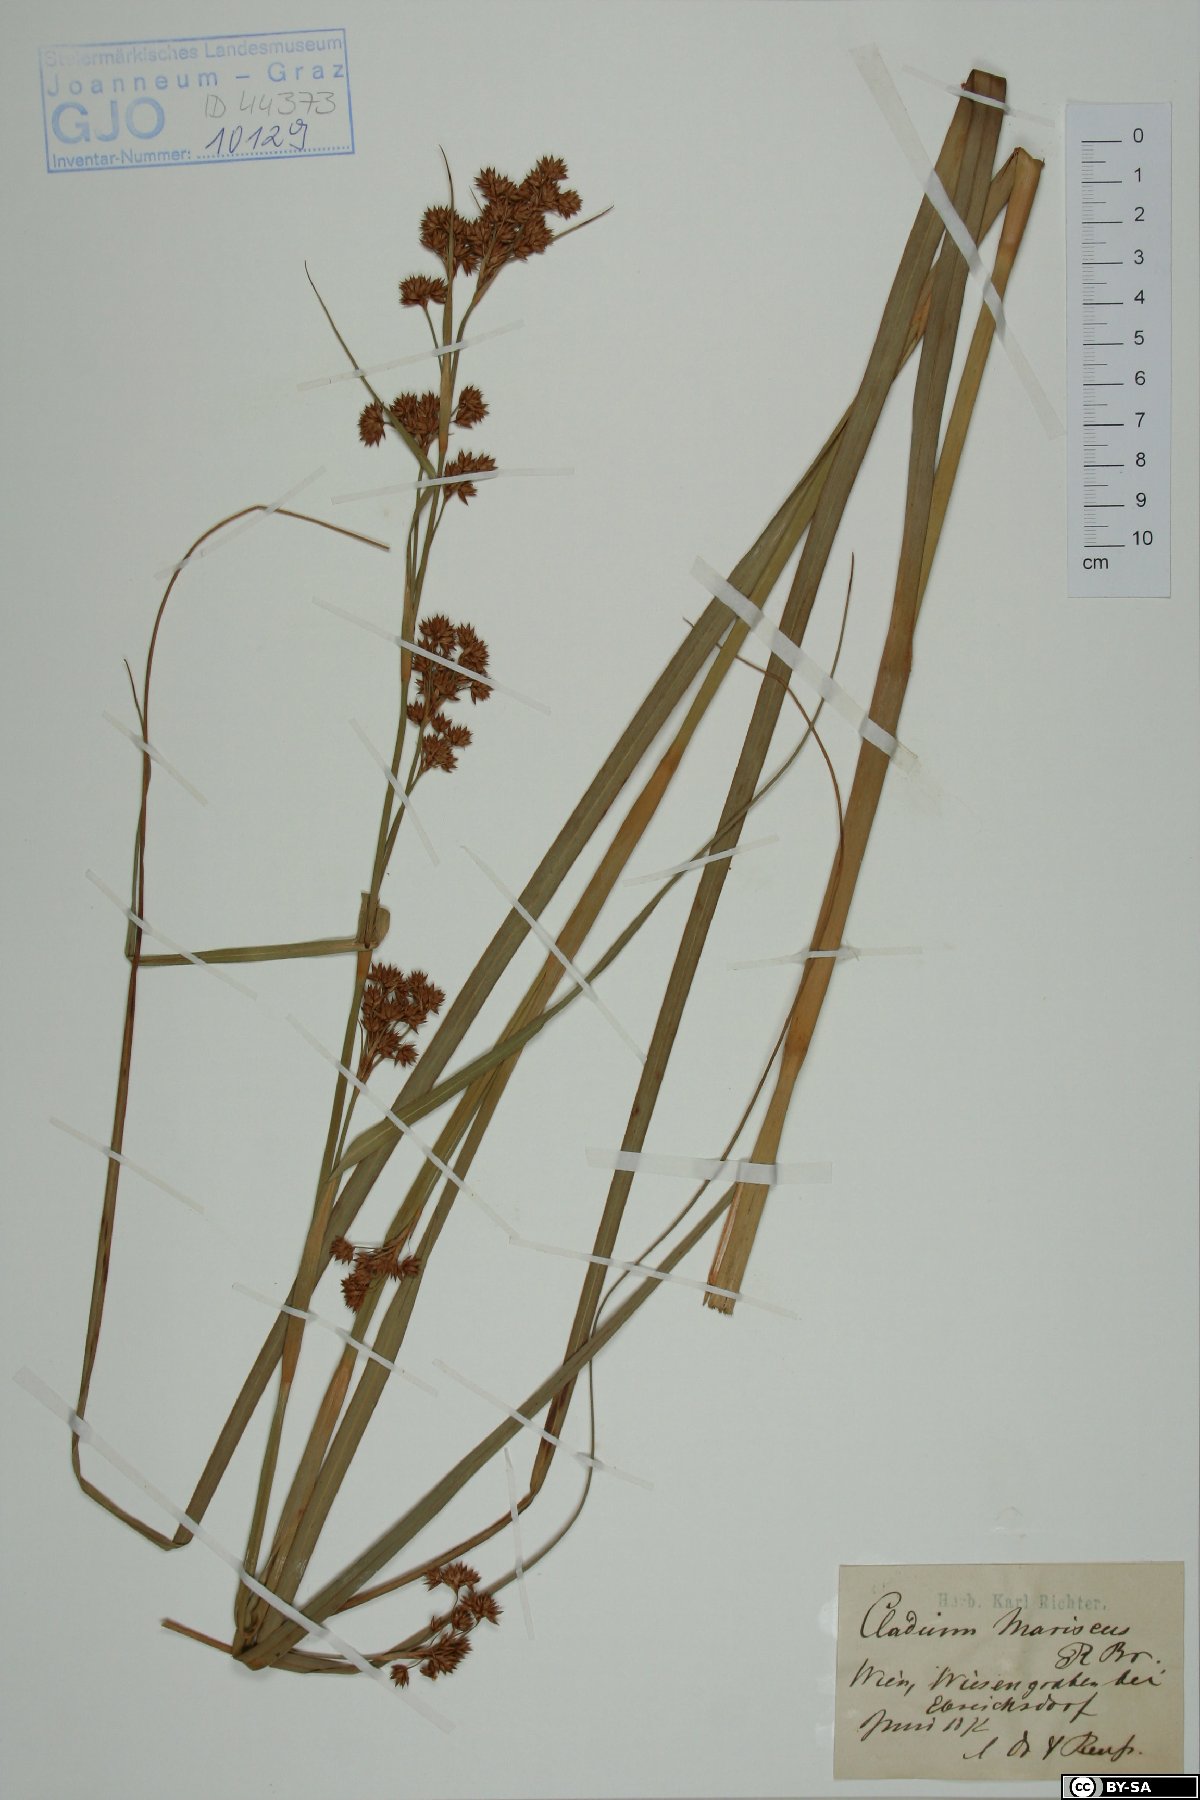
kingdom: Plantae
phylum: Tracheophyta
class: Liliopsida
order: Poales
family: Cyperaceae
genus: Cladium
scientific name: Cladium mariscus
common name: Great fen-sedge
